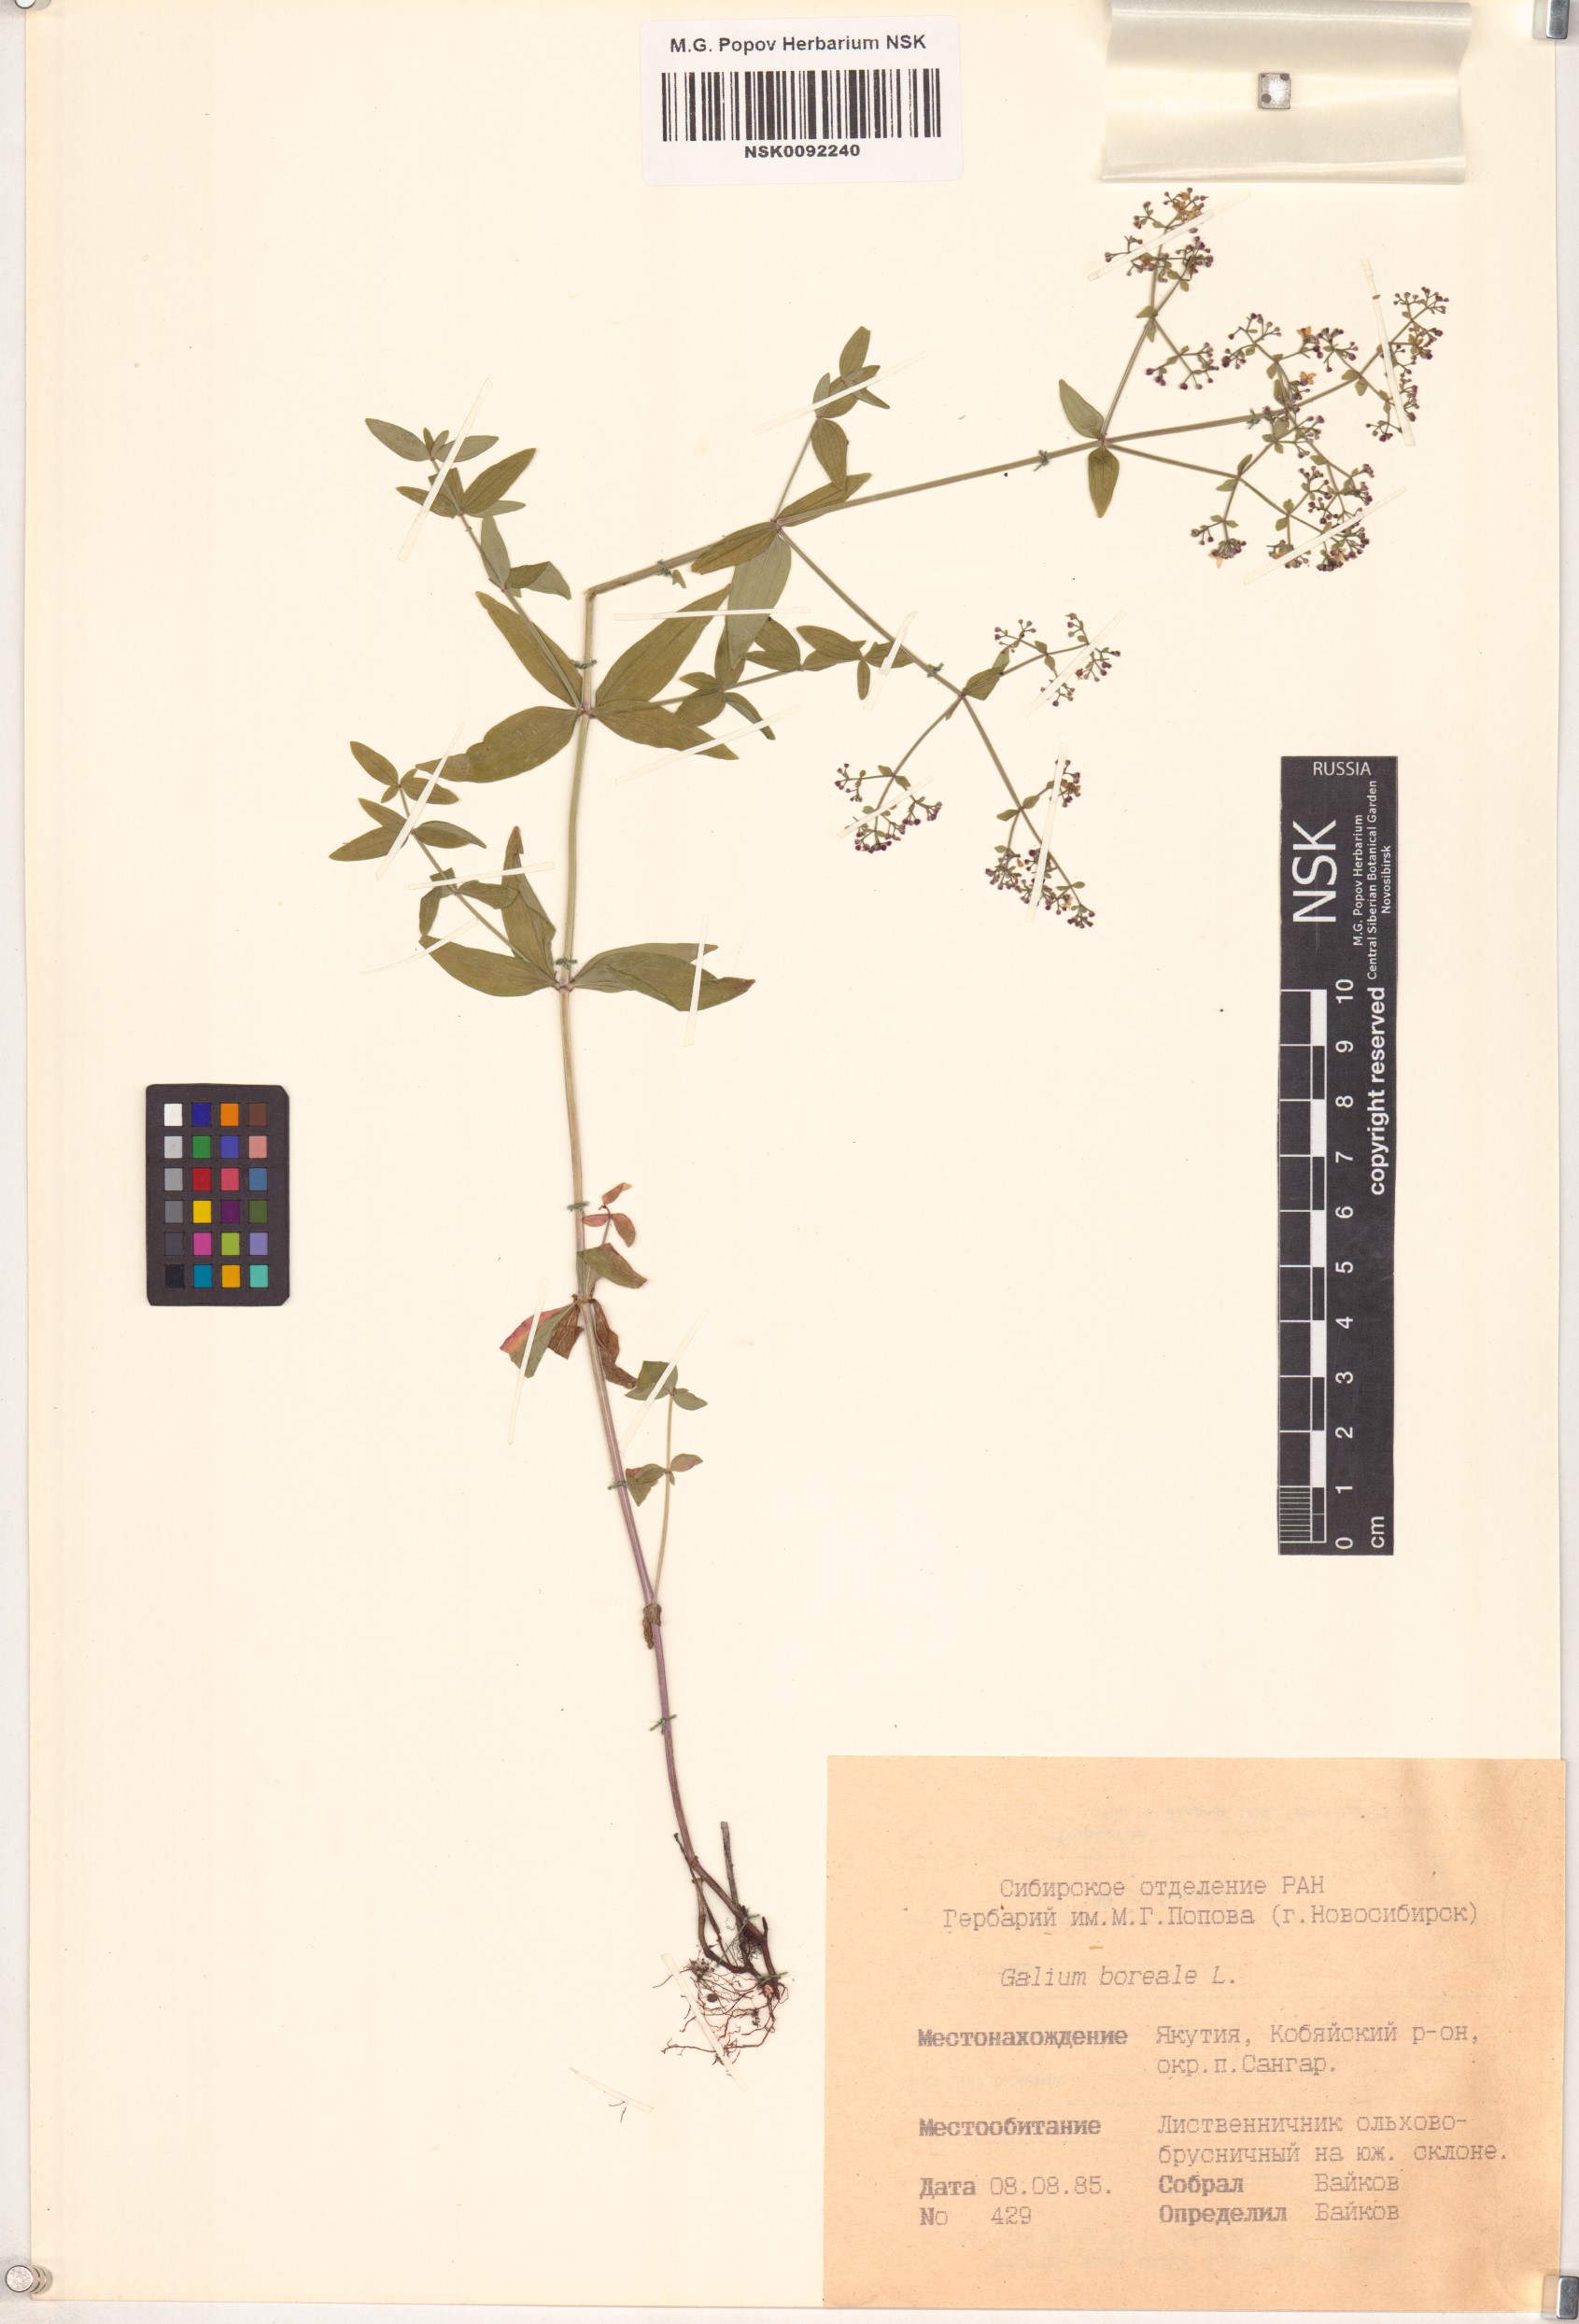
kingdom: Plantae
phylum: Tracheophyta
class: Magnoliopsida
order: Gentianales
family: Rubiaceae
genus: Galium
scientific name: Galium boreale
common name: Northern bedstraw
